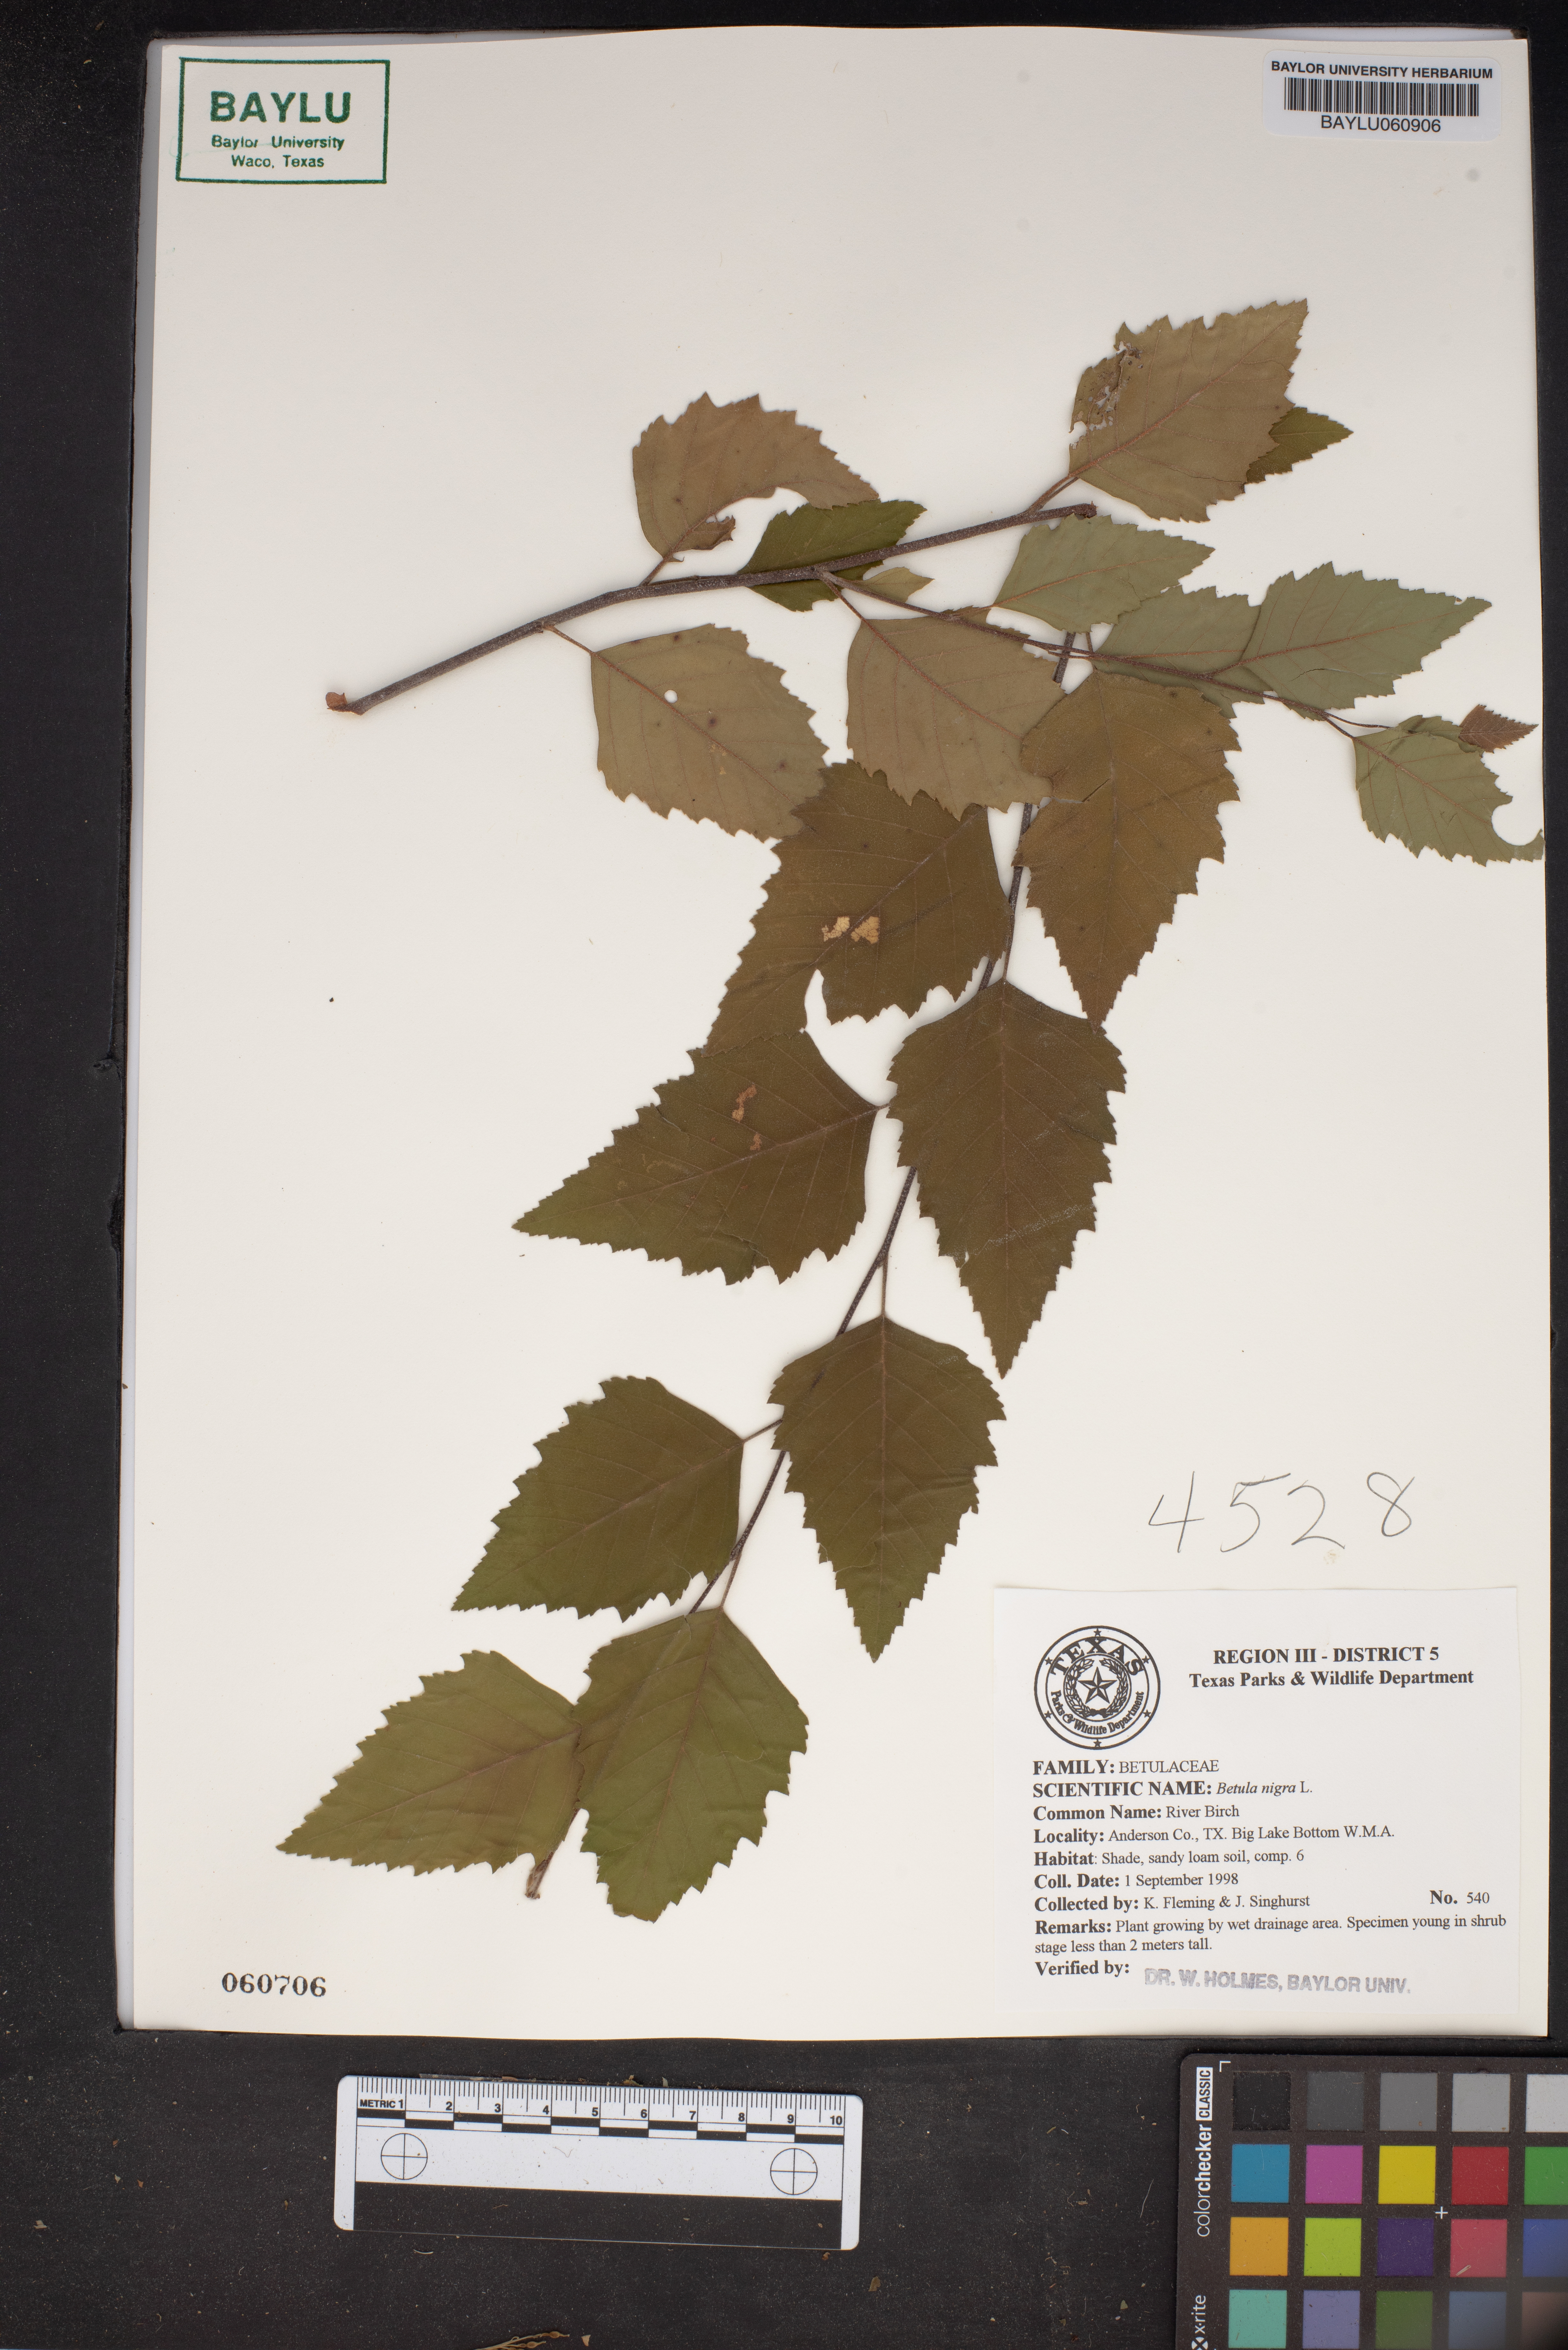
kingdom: Plantae
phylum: Tracheophyta
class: Magnoliopsida
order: Fagales
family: Betulaceae
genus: Betula
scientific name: Betula nigra
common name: Black birch
